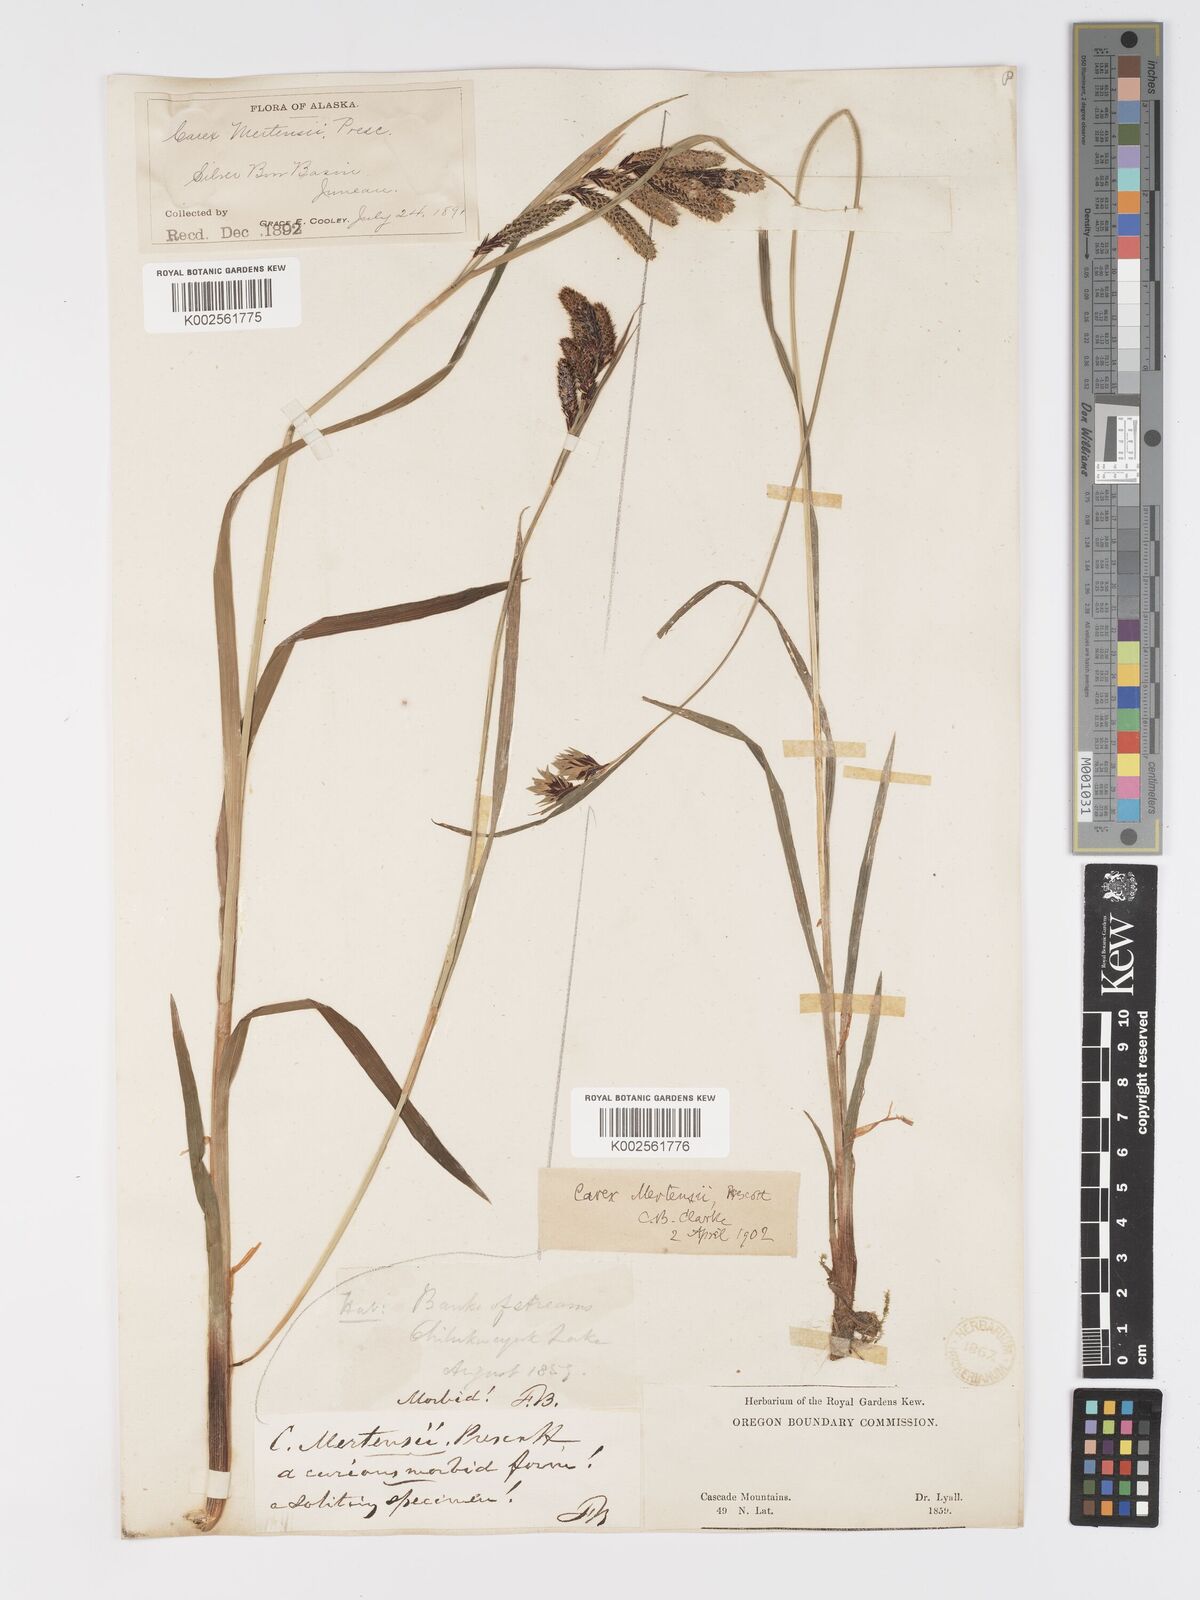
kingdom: Plantae
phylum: Tracheophyta
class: Liliopsida
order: Poales
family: Cyperaceae
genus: Carex
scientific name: Carex mertensii
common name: Mertens' sedge
